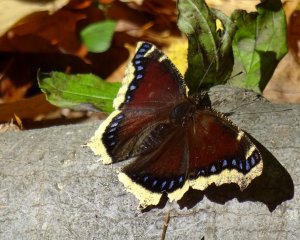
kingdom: Animalia
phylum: Arthropoda
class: Insecta
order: Lepidoptera
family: Nymphalidae
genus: Nymphalis
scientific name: Nymphalis antiopa
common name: Mourning Cloak
